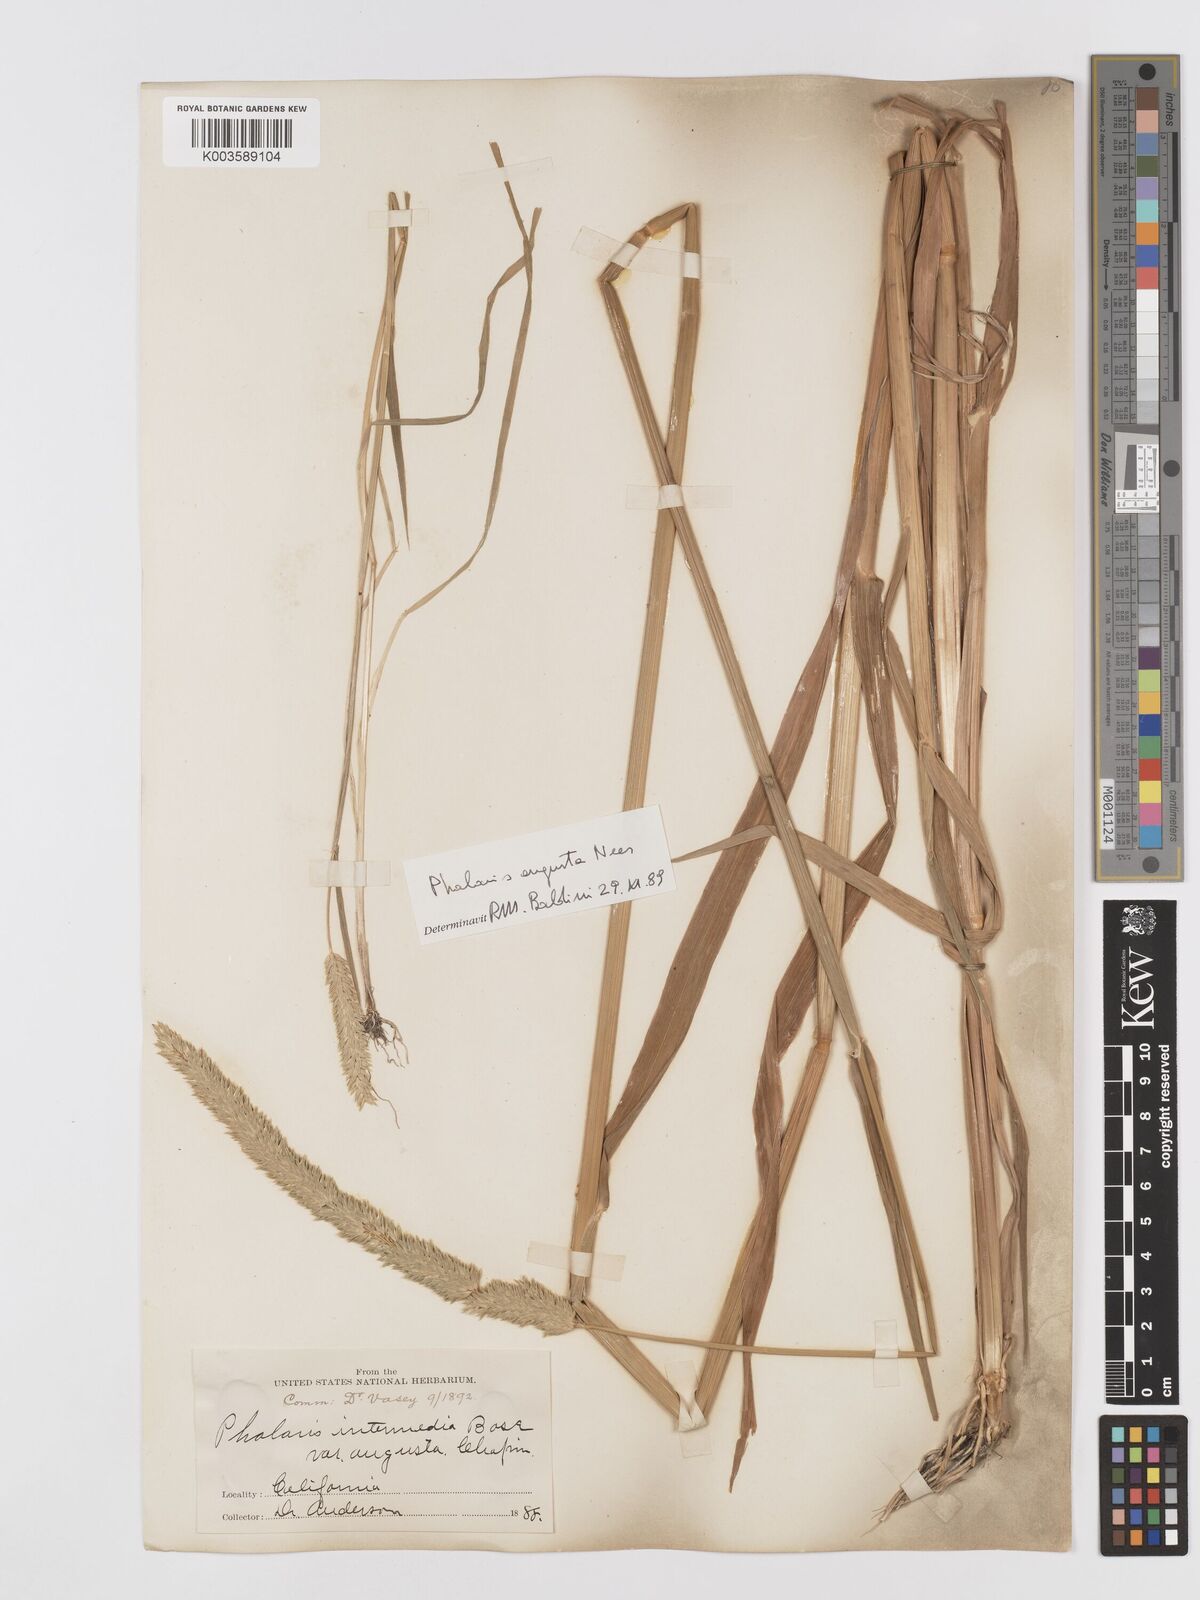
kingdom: Plantae
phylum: Tracheophyta
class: Liliopsida
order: Poales
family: Poaceae
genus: Phalaris
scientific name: Phalaris
